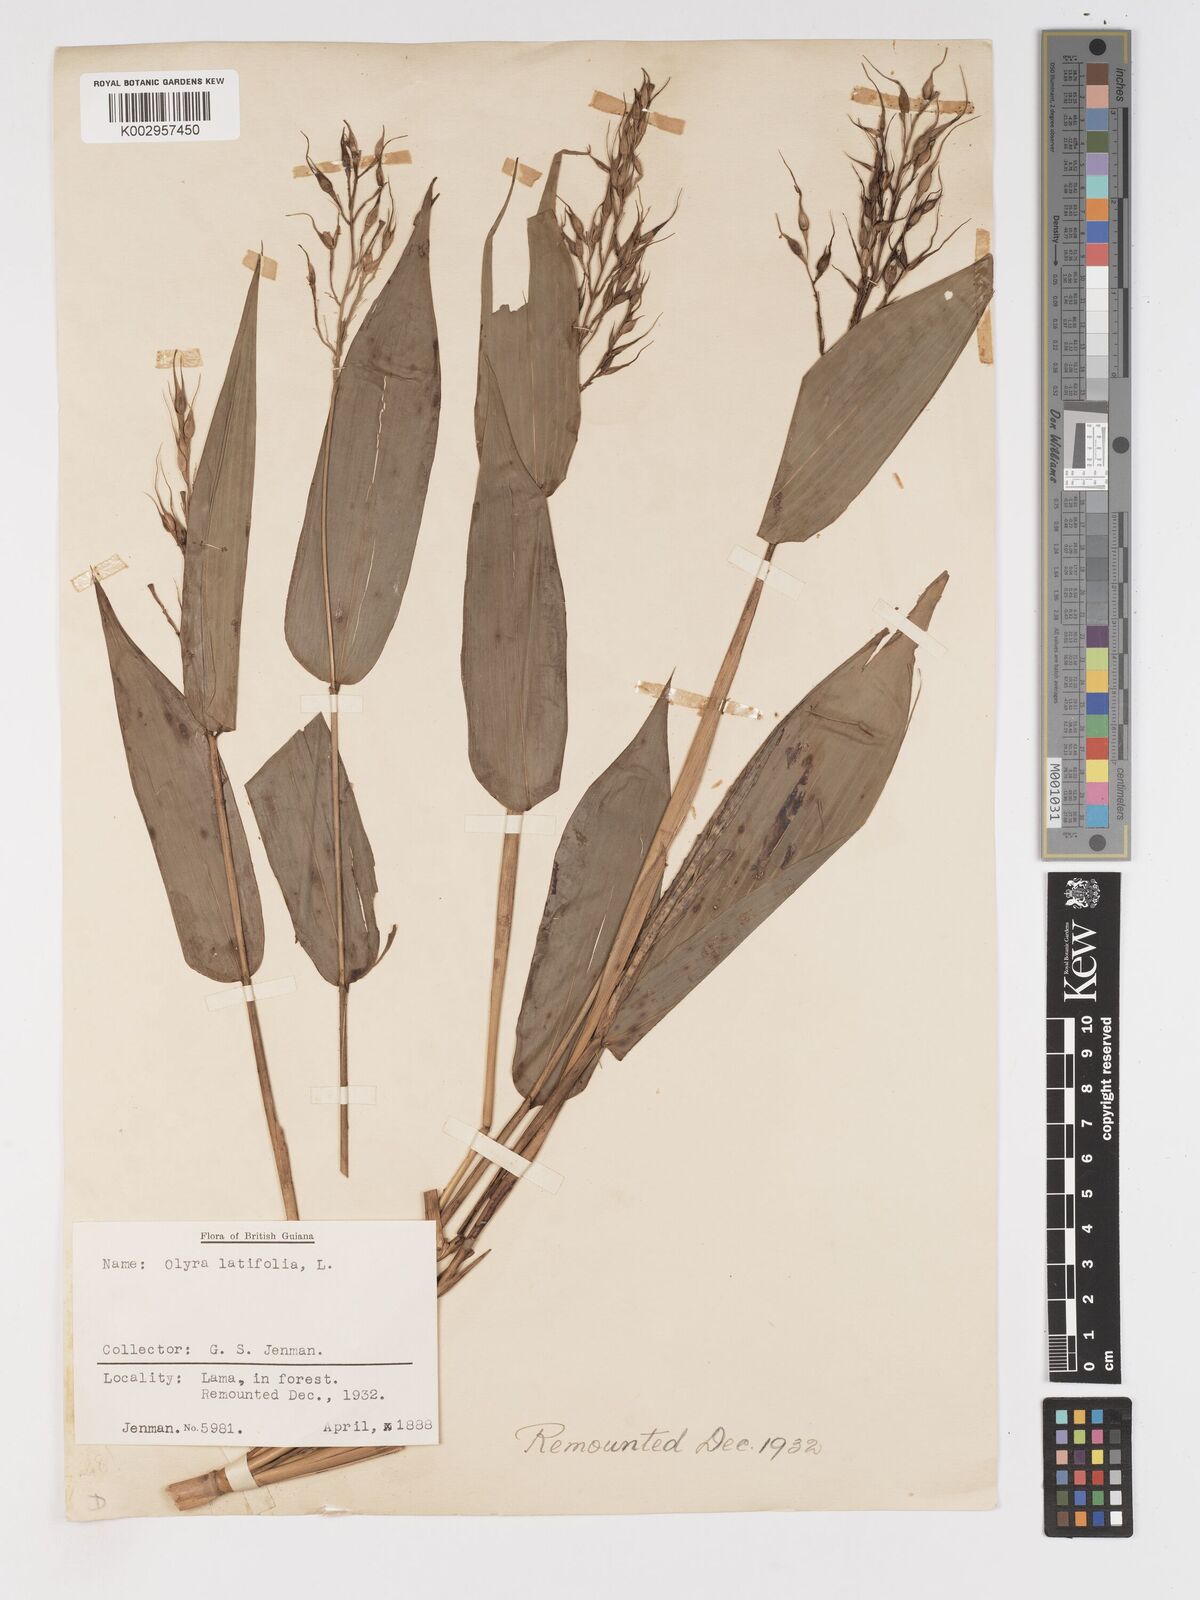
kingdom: Plantae
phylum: Tracheophyta
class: Liliopsida
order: Poales
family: Poaceae
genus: Olyra
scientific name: Olyra latifolia
